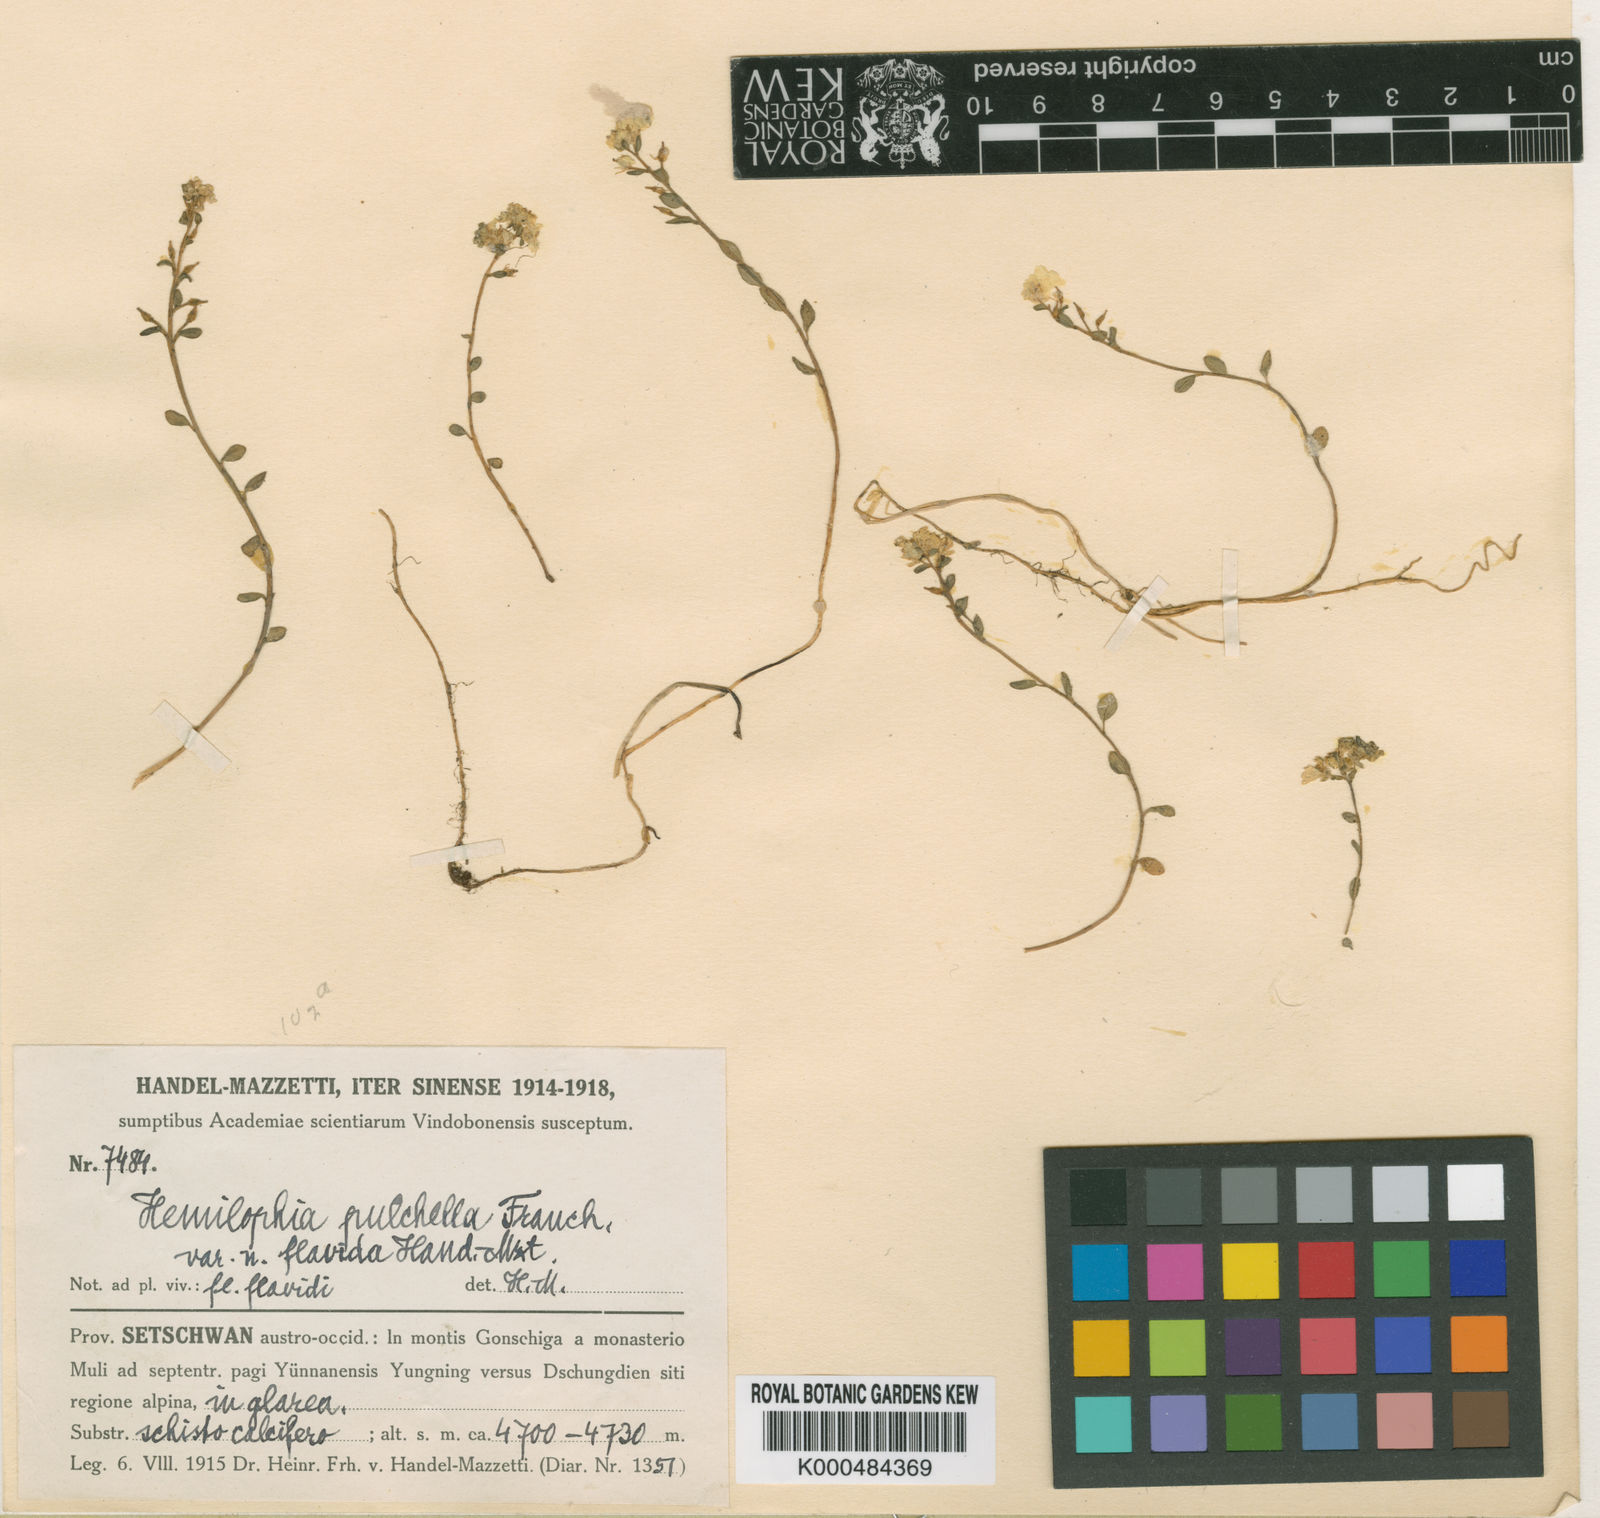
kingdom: Plantae
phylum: Tracheophyta
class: Magnoliopsida
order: Brassicales
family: Brassicaceae
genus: Hemilophia
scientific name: Hemilophia pulchella
